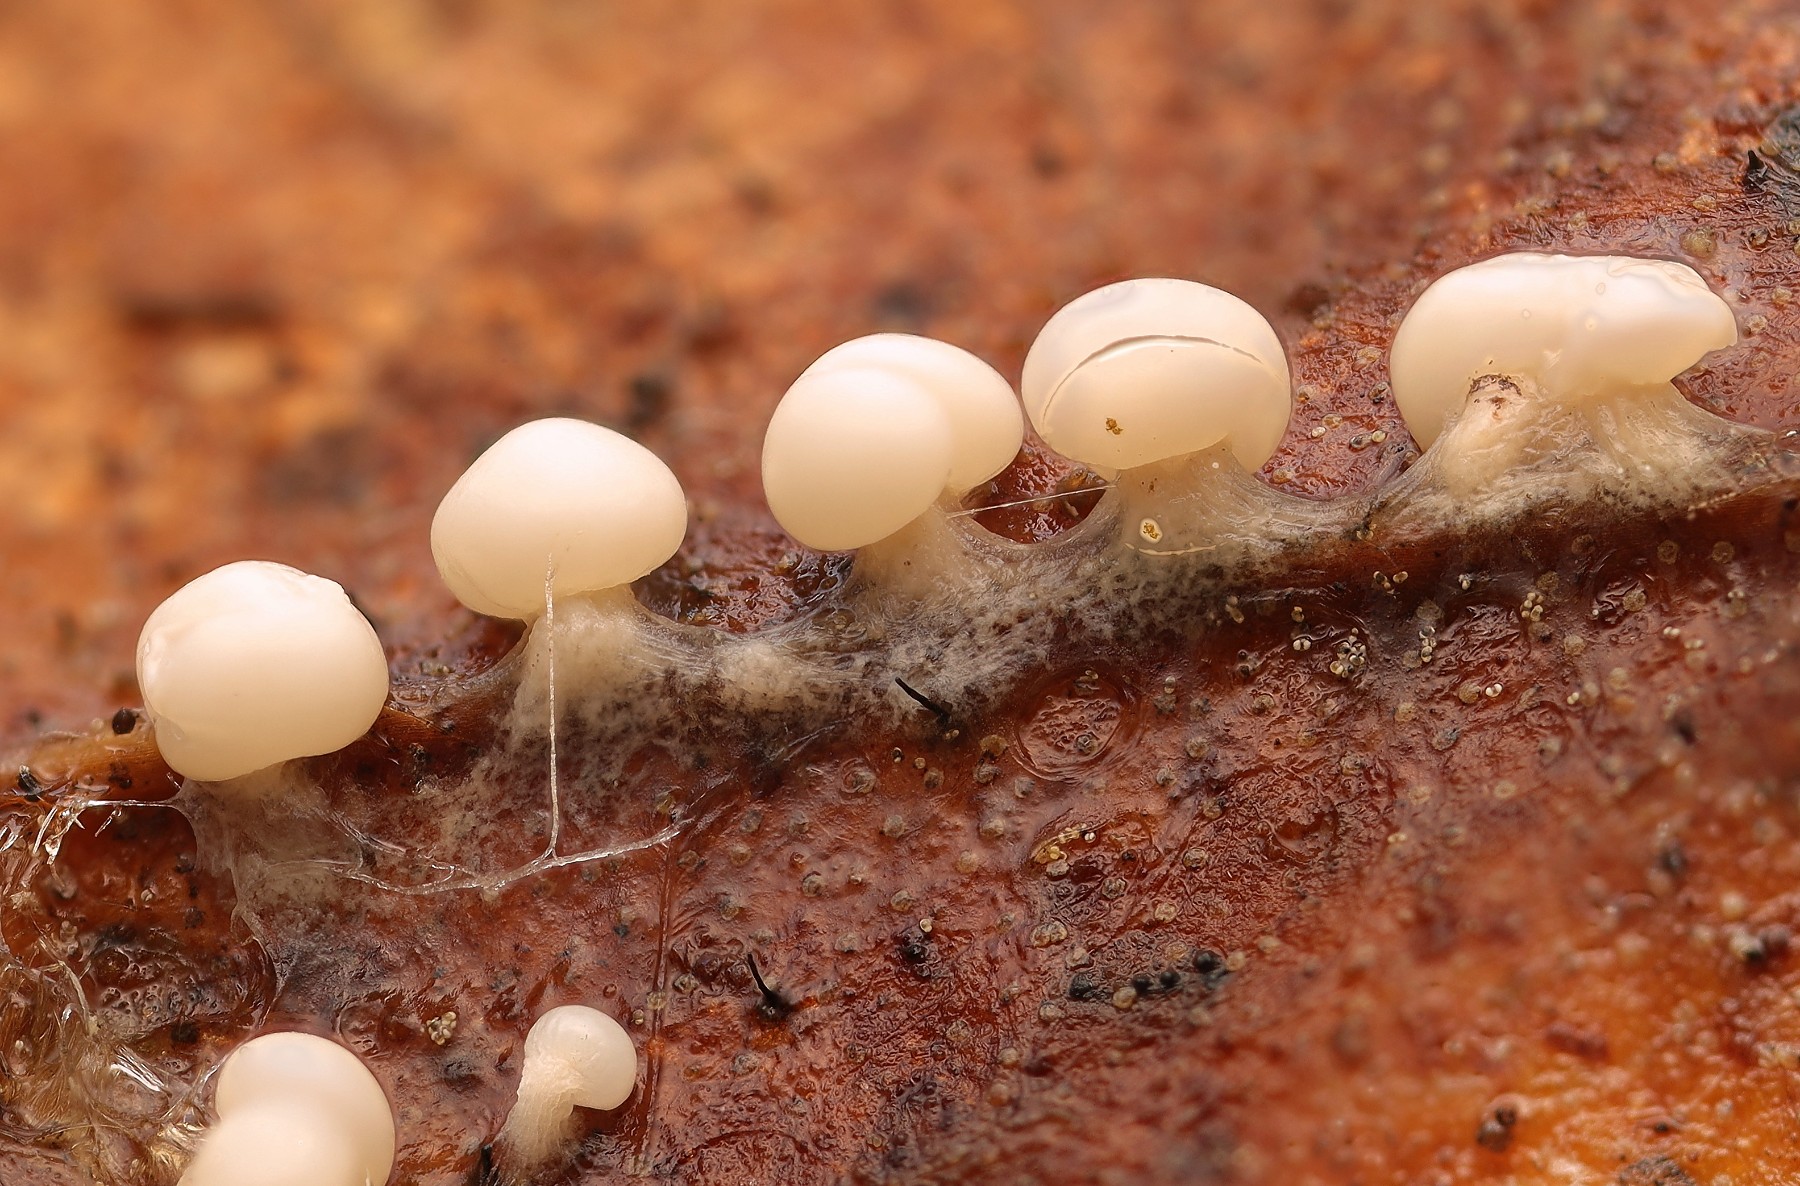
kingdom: Protozoa
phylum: Mycetozoa
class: Myxomycetes
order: Physarales
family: Didymiaceae
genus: Diderma
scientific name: Diderma montanum
